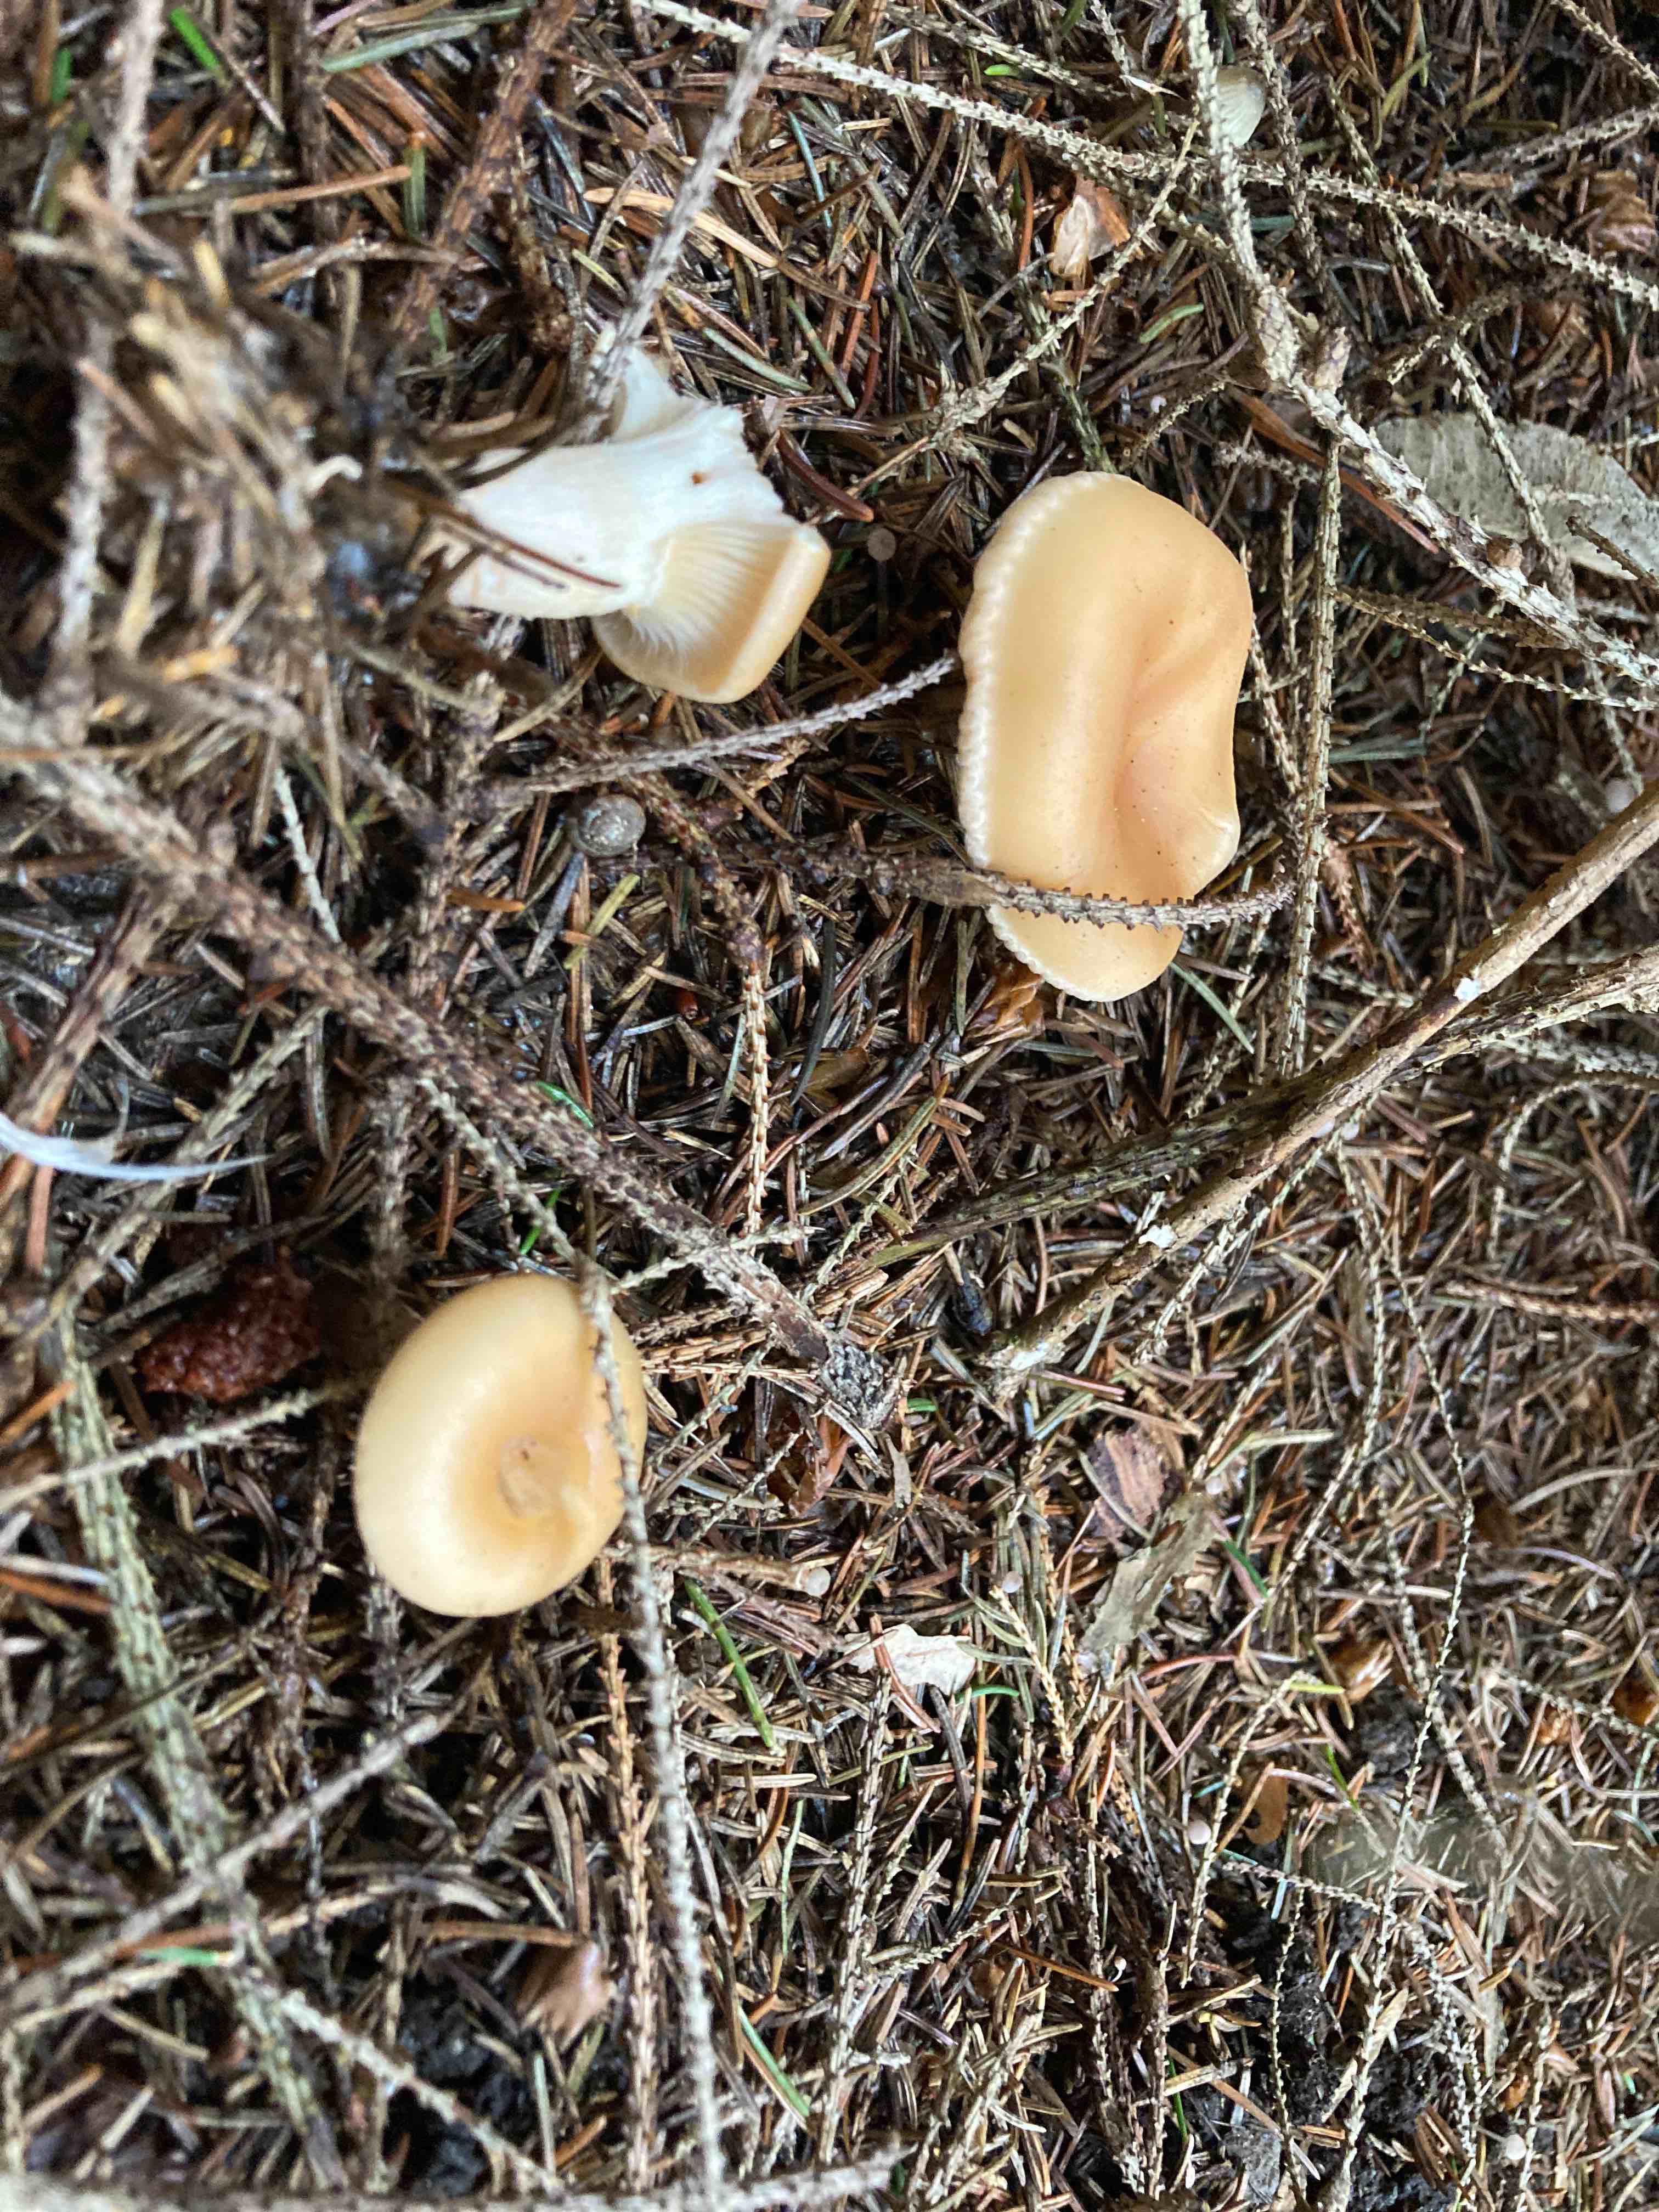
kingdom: Fungi
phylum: Basidiomycota
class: Agaricomycetes
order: Agaricales
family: Tricholomataceae
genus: Paralepista
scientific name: Paralepista flaccida
